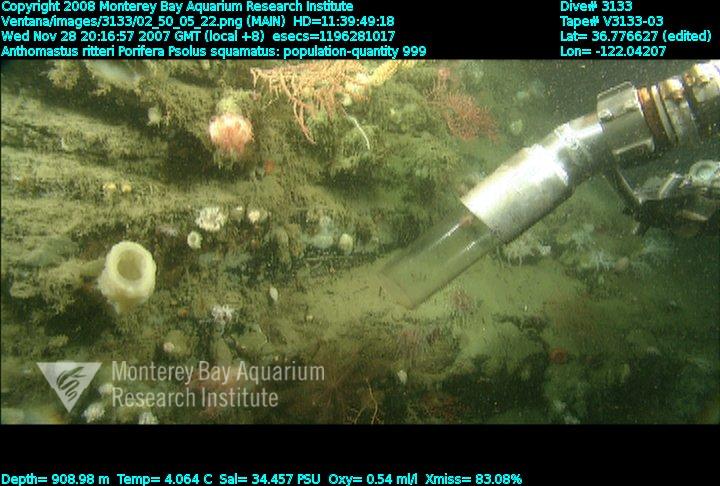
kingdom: Animalia
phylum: Porifera
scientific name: Porifera
